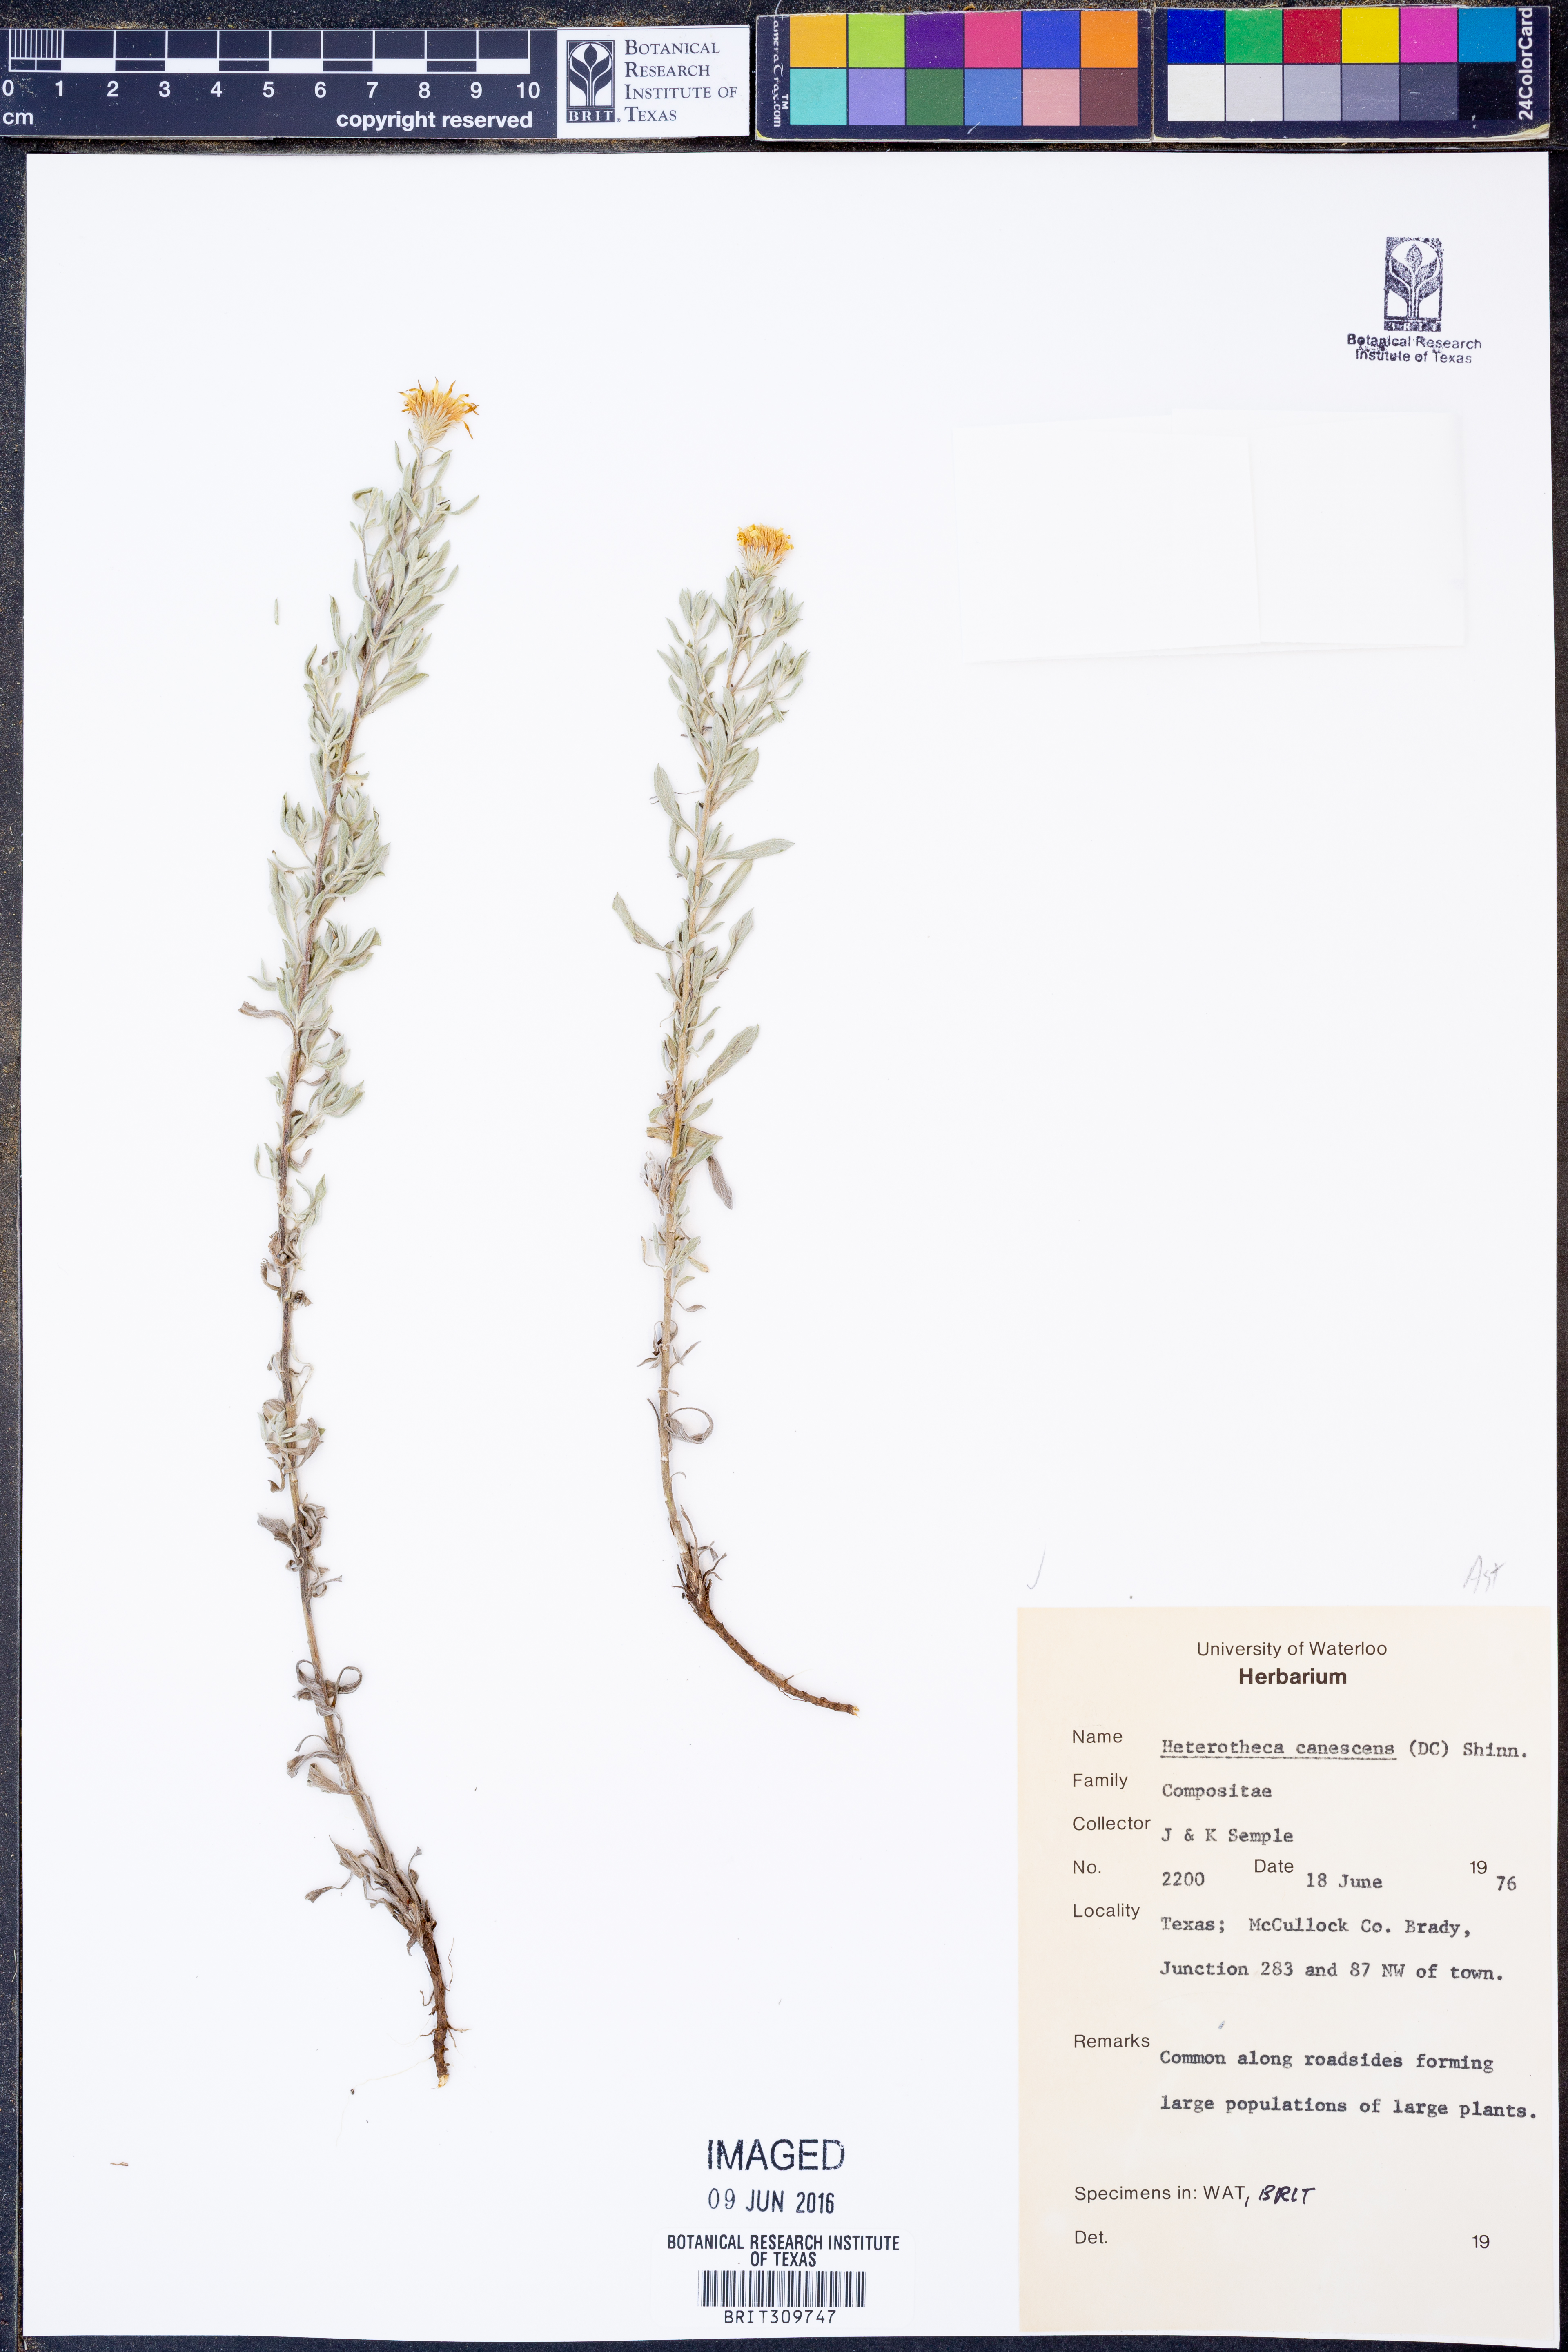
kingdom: Plantae
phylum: Tracheophyta
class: Magnoliopsida
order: Asterales
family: Asteraceae
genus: Heterotheca
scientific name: Heterotheca canescens
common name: Hoary golden-aster
